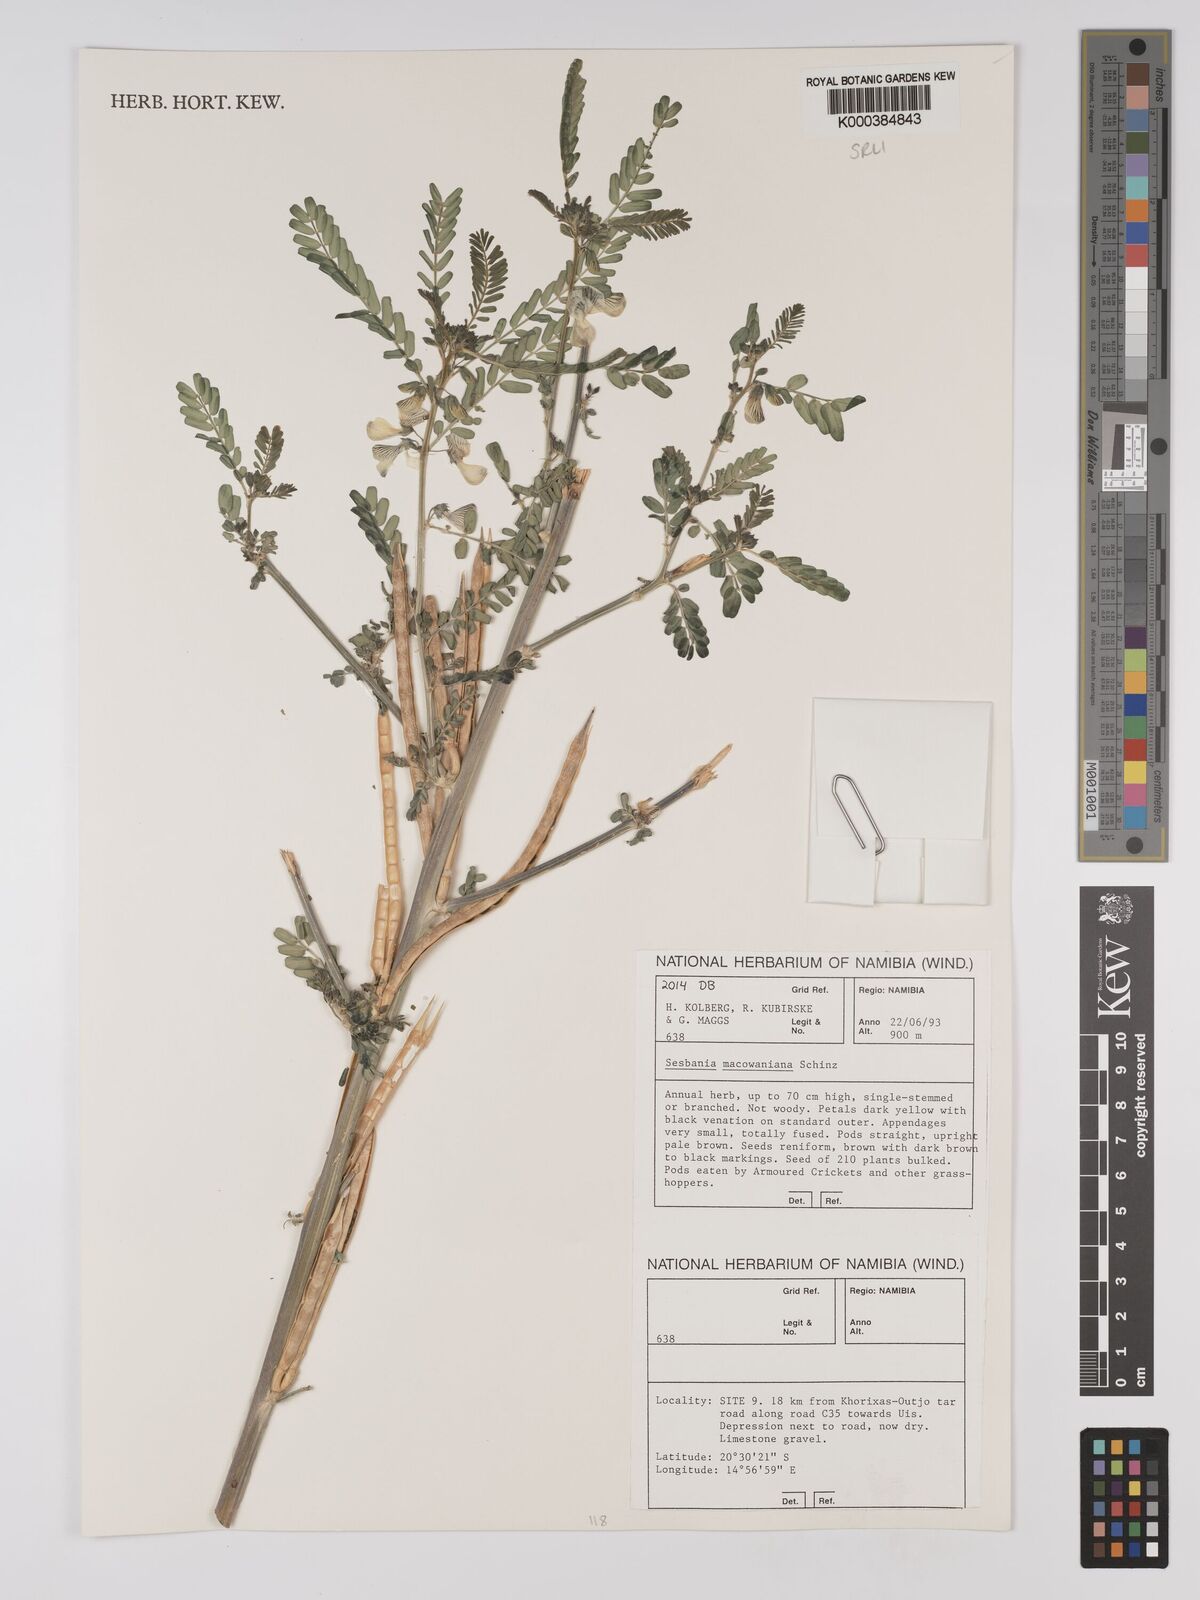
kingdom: Plantae
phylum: Tracheophyta
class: Magnoliopsida
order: Fabales
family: Fabaceae
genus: Sesbania
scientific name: Sesbania macowaniana
